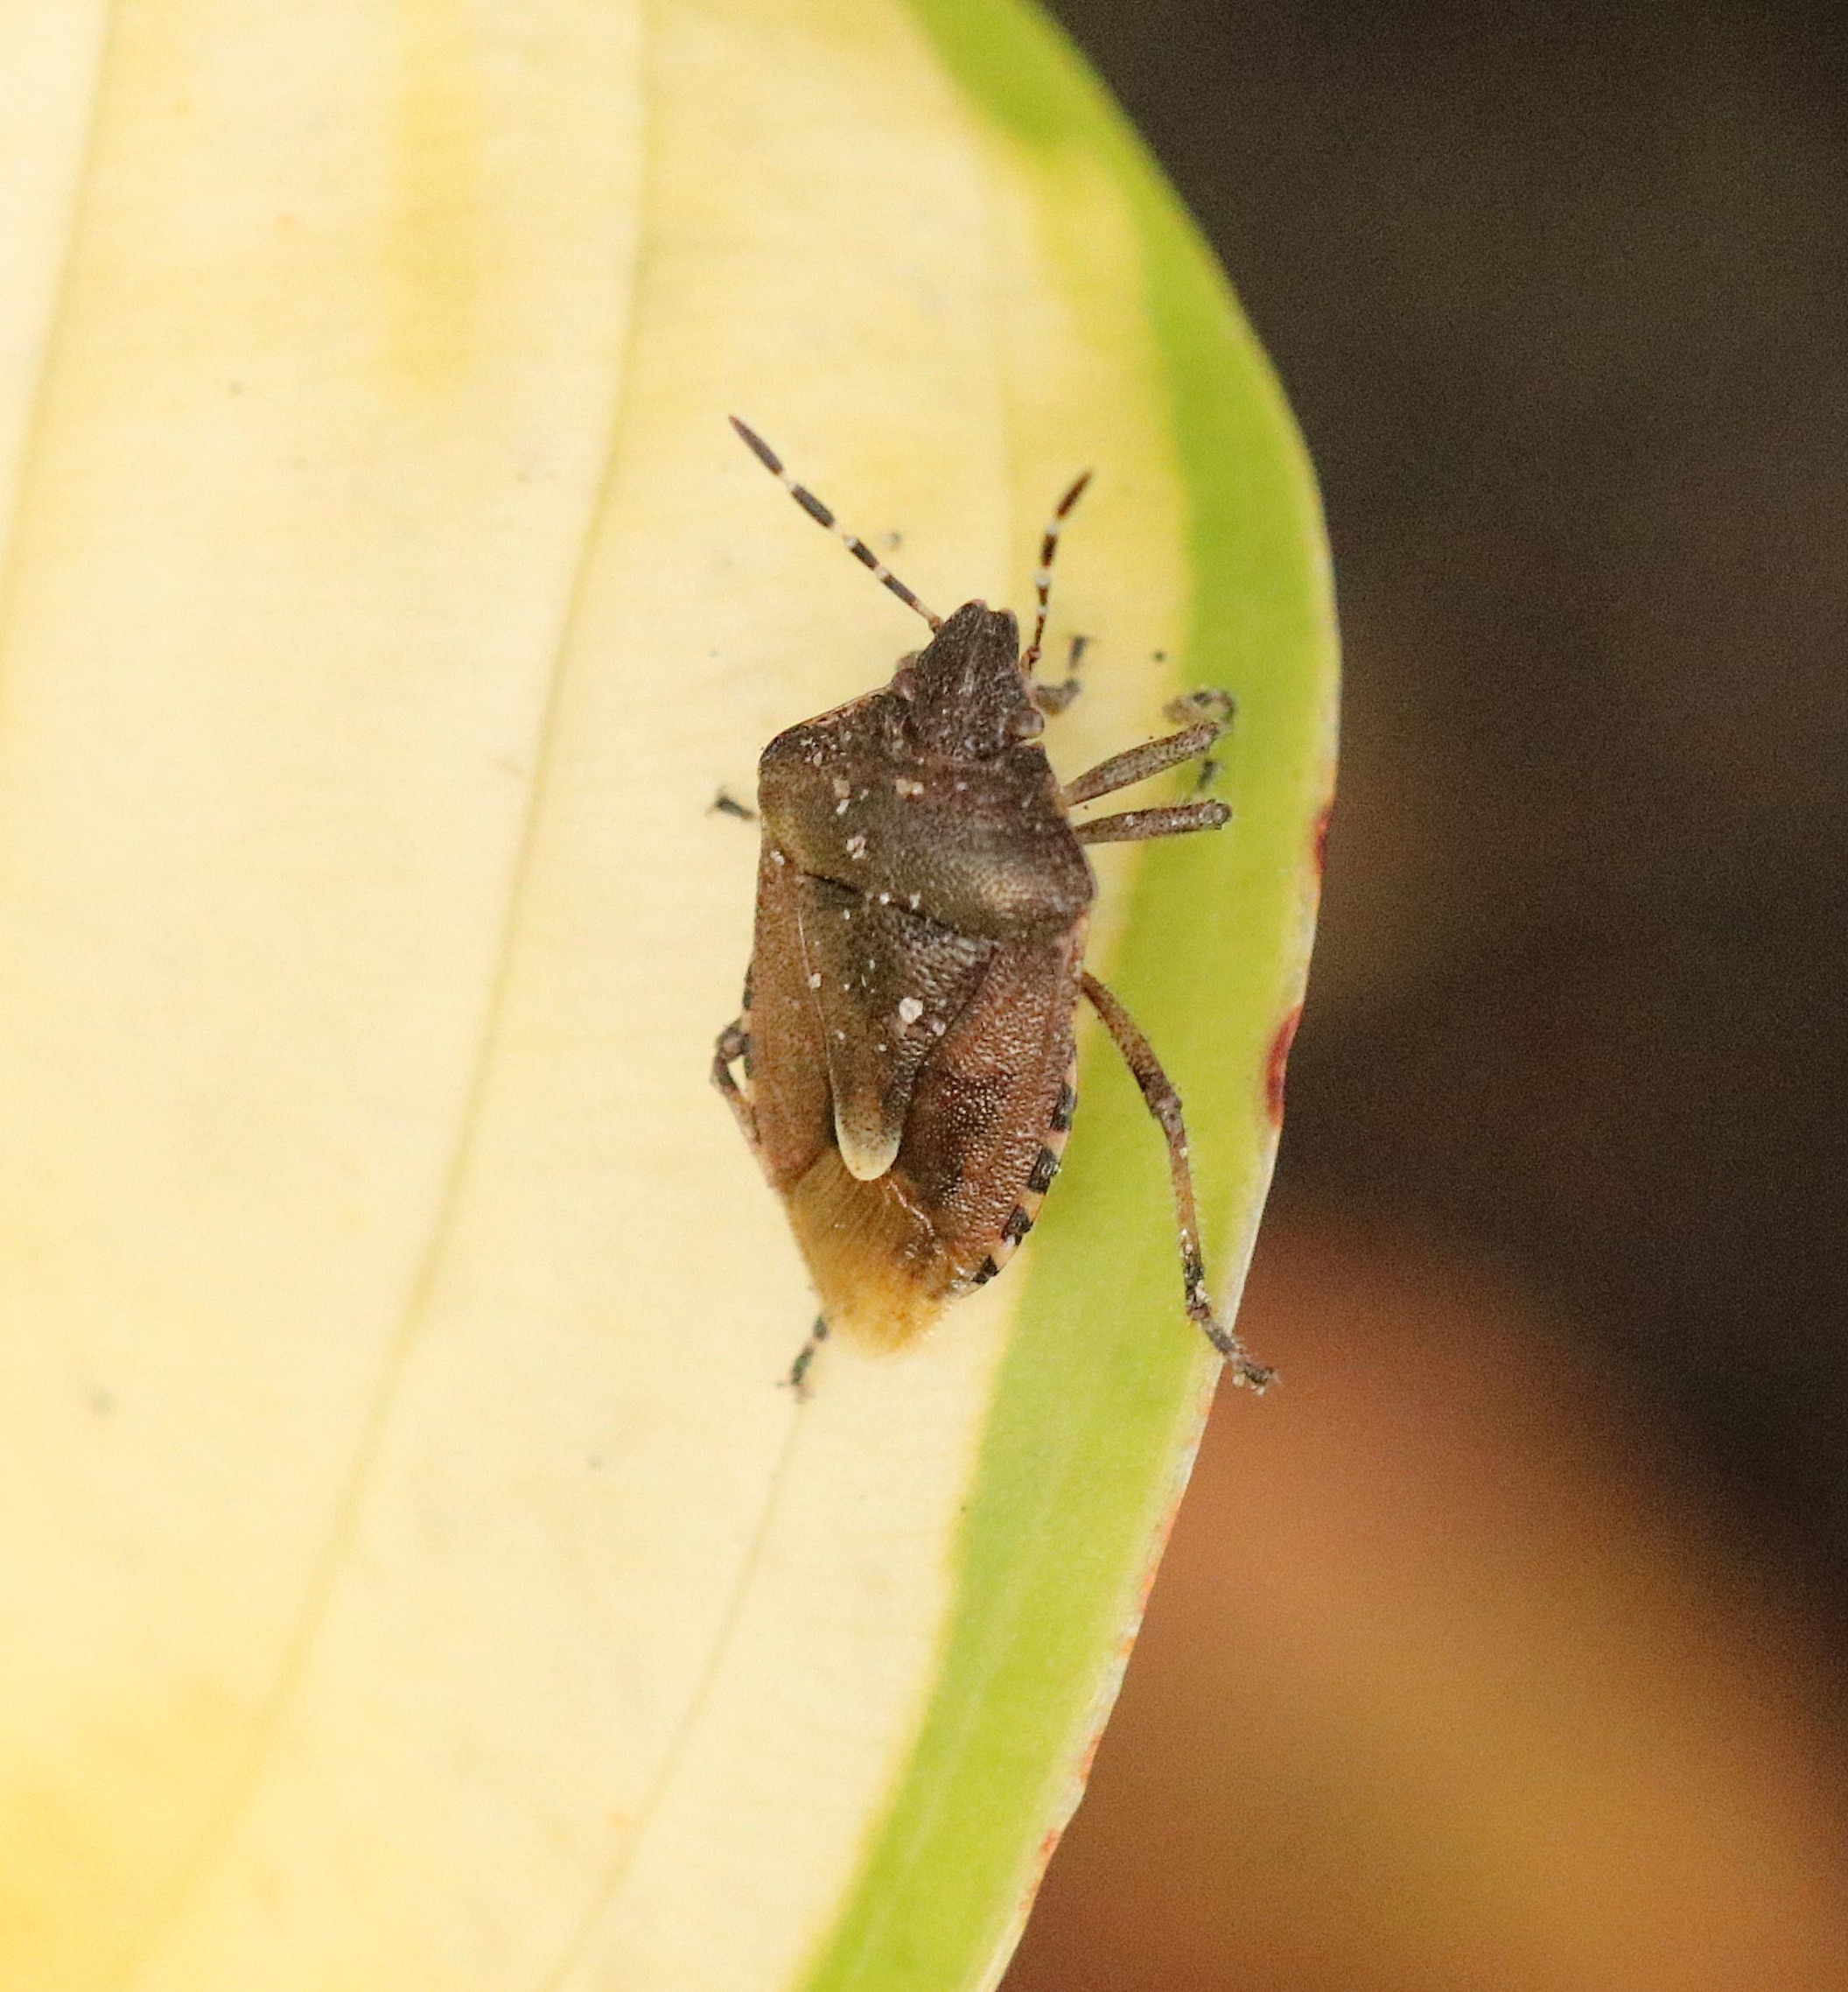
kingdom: Animalia
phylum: Arthropoda
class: Insecta
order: Hemiptera
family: Pentatomidae
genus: Dolycoris
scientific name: Dolycoris baccarum
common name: Almindelig bærtæge
